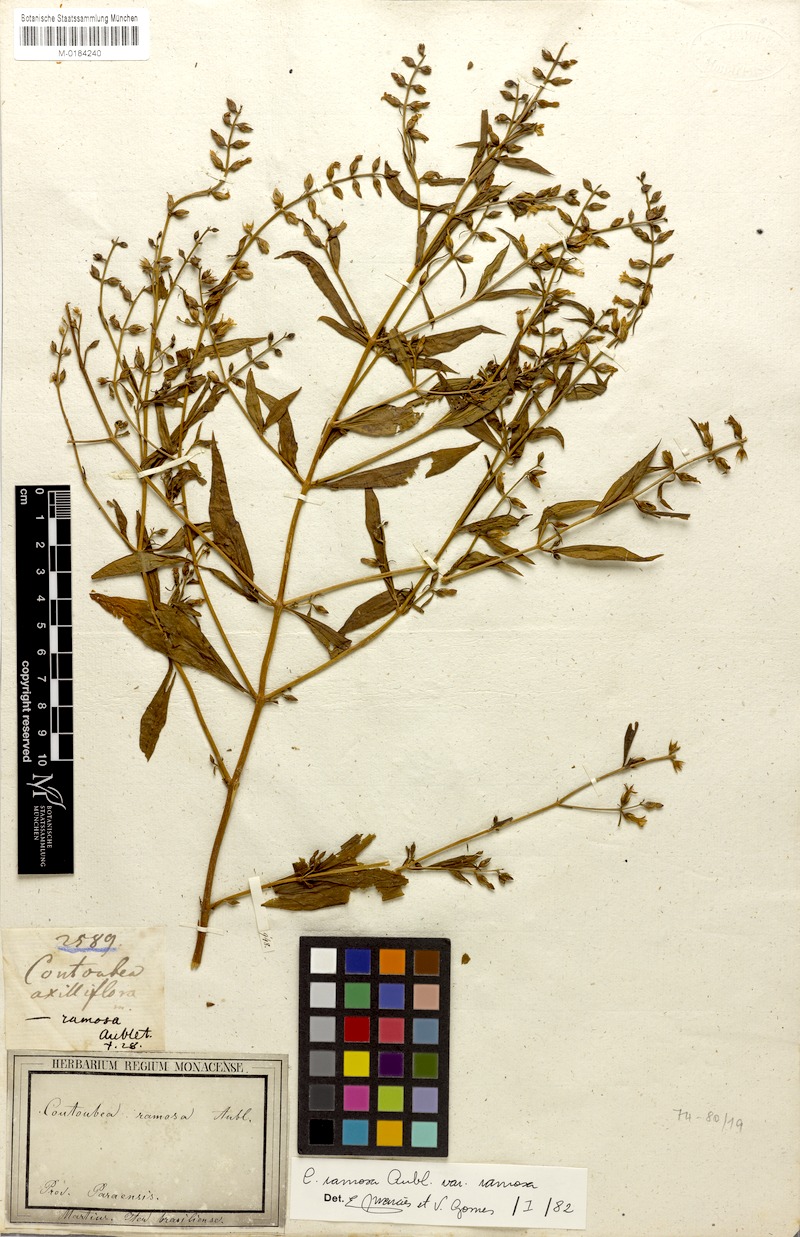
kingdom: Plantae
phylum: Tracheophyta
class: Magnoliopsida
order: Gentianales
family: Gentianaceae
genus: Coutoubea
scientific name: Coutoubea ramosa
